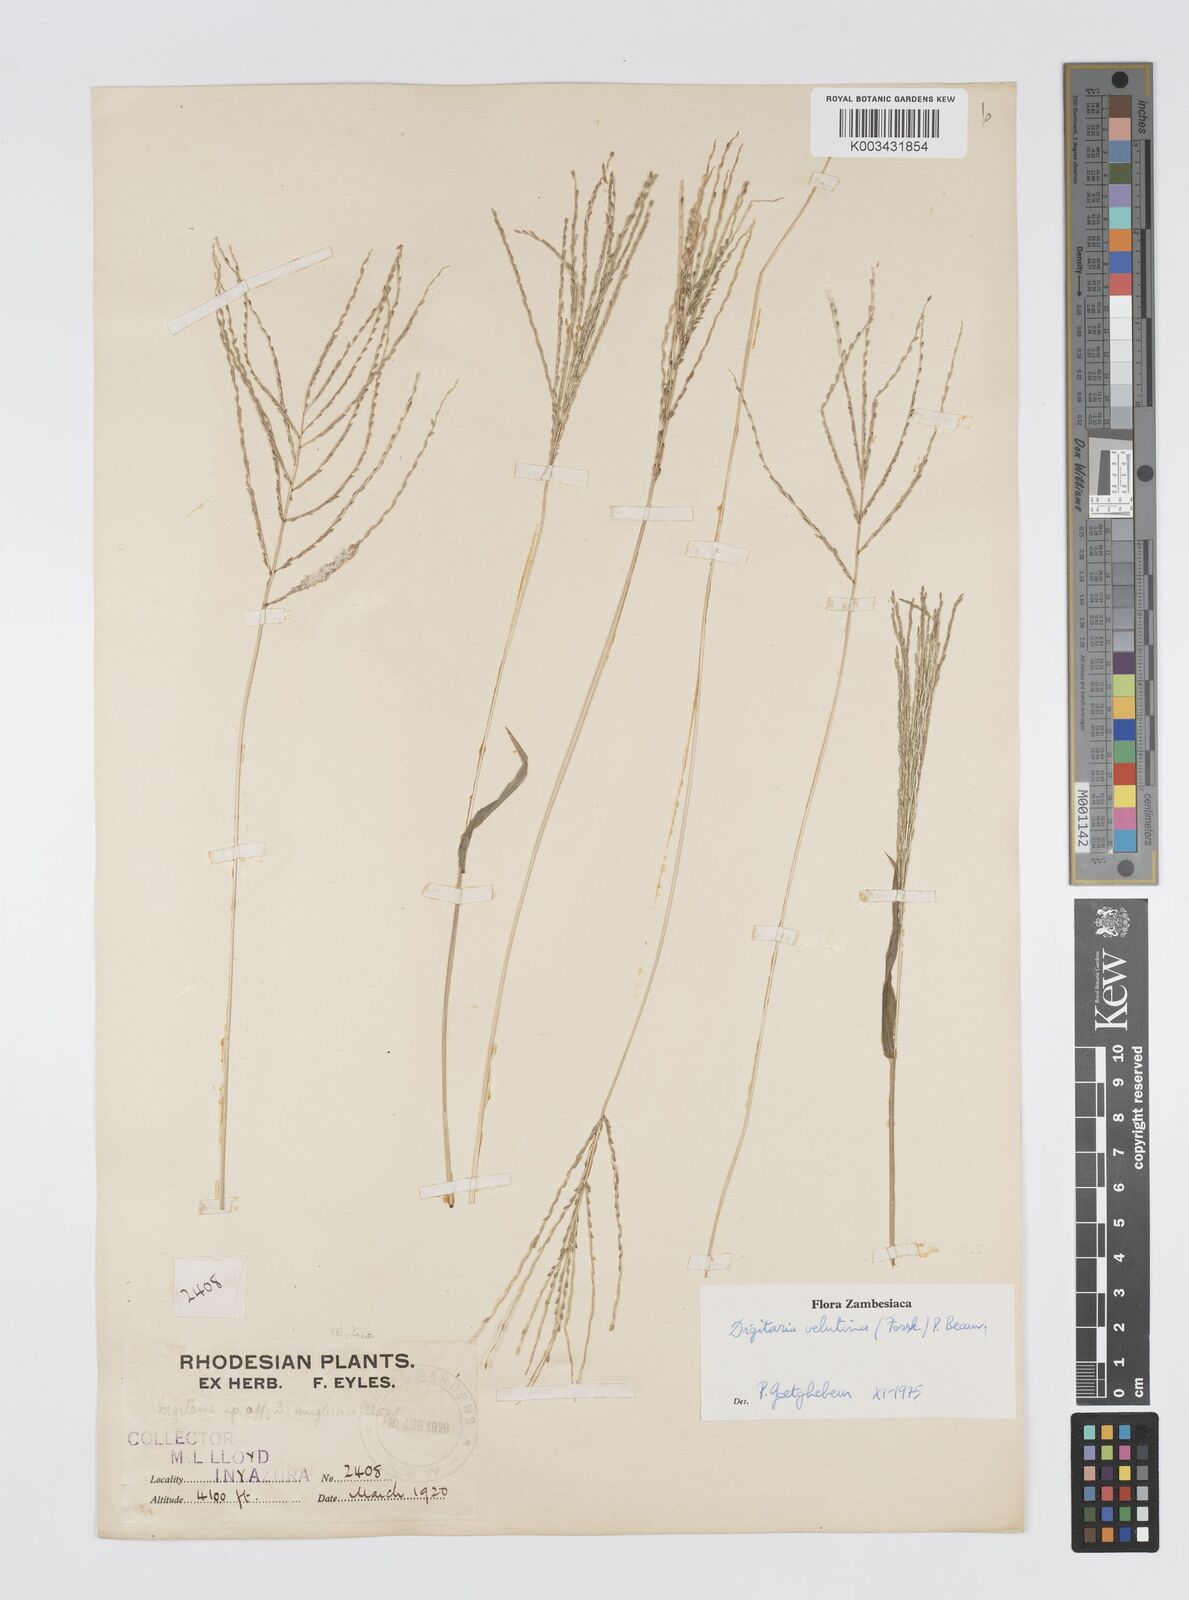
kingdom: Plantae
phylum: Tracheophyta
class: Liliopsida
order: Poales
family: Poaceae
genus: Digitaria
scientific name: Digitaria velutina
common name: Long-plume finger grass
